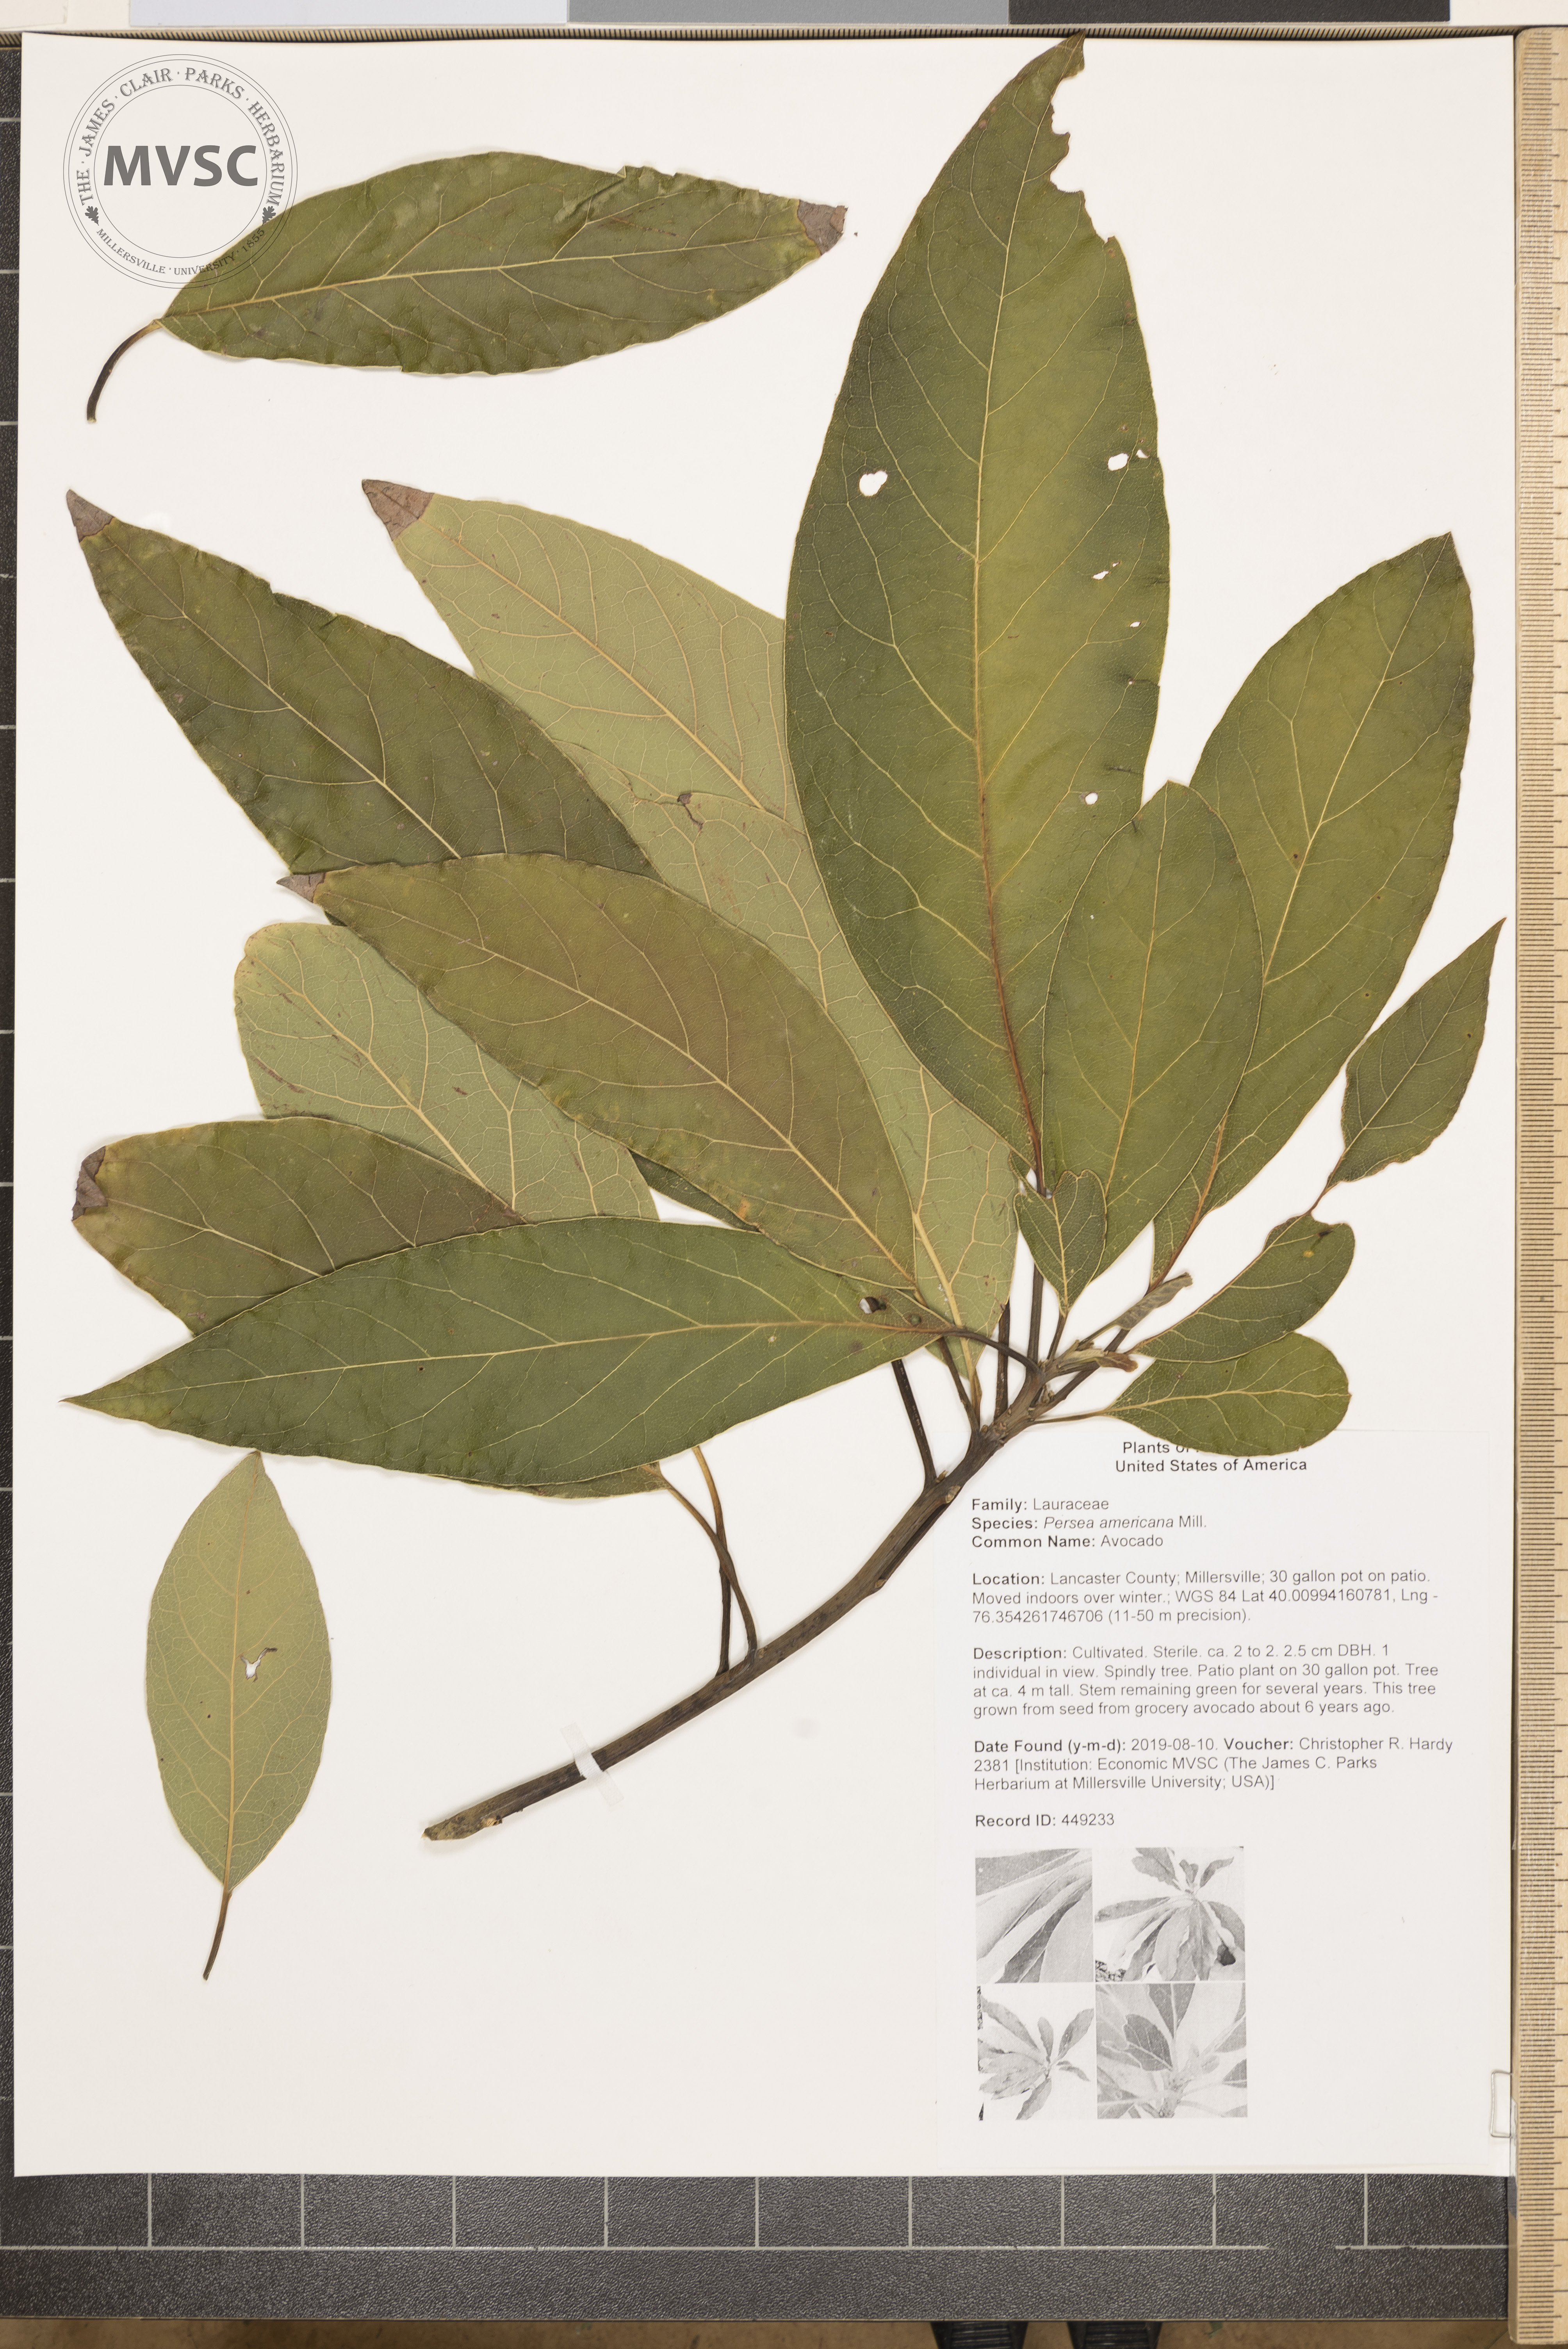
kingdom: Plantae
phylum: Tracheophyta
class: Magnoliopsida
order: Laurales
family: Lauraceae
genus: Persea
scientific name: Persea americana
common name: Avocado
